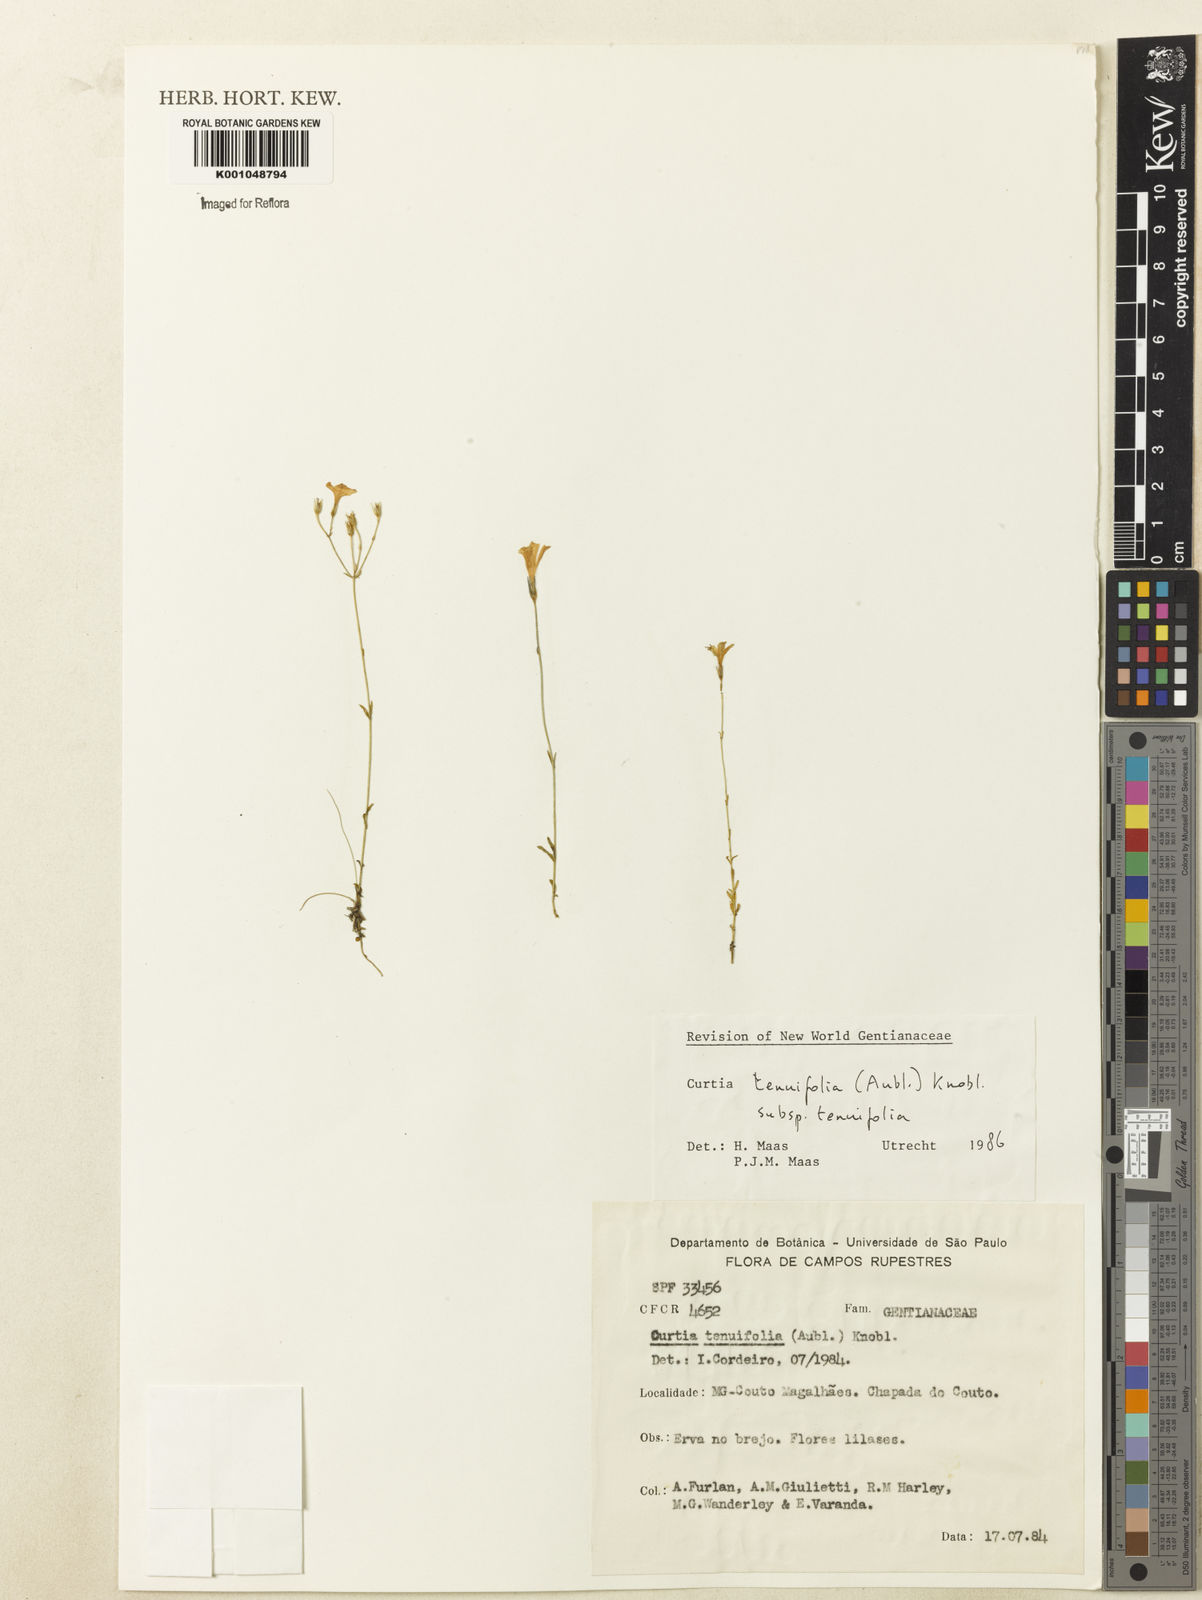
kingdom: Plantae
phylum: Tracheophyta
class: Magnoliopsida
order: Gentianales
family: Gentianaceae
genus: Curtia
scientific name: Curtia tenuifolia
